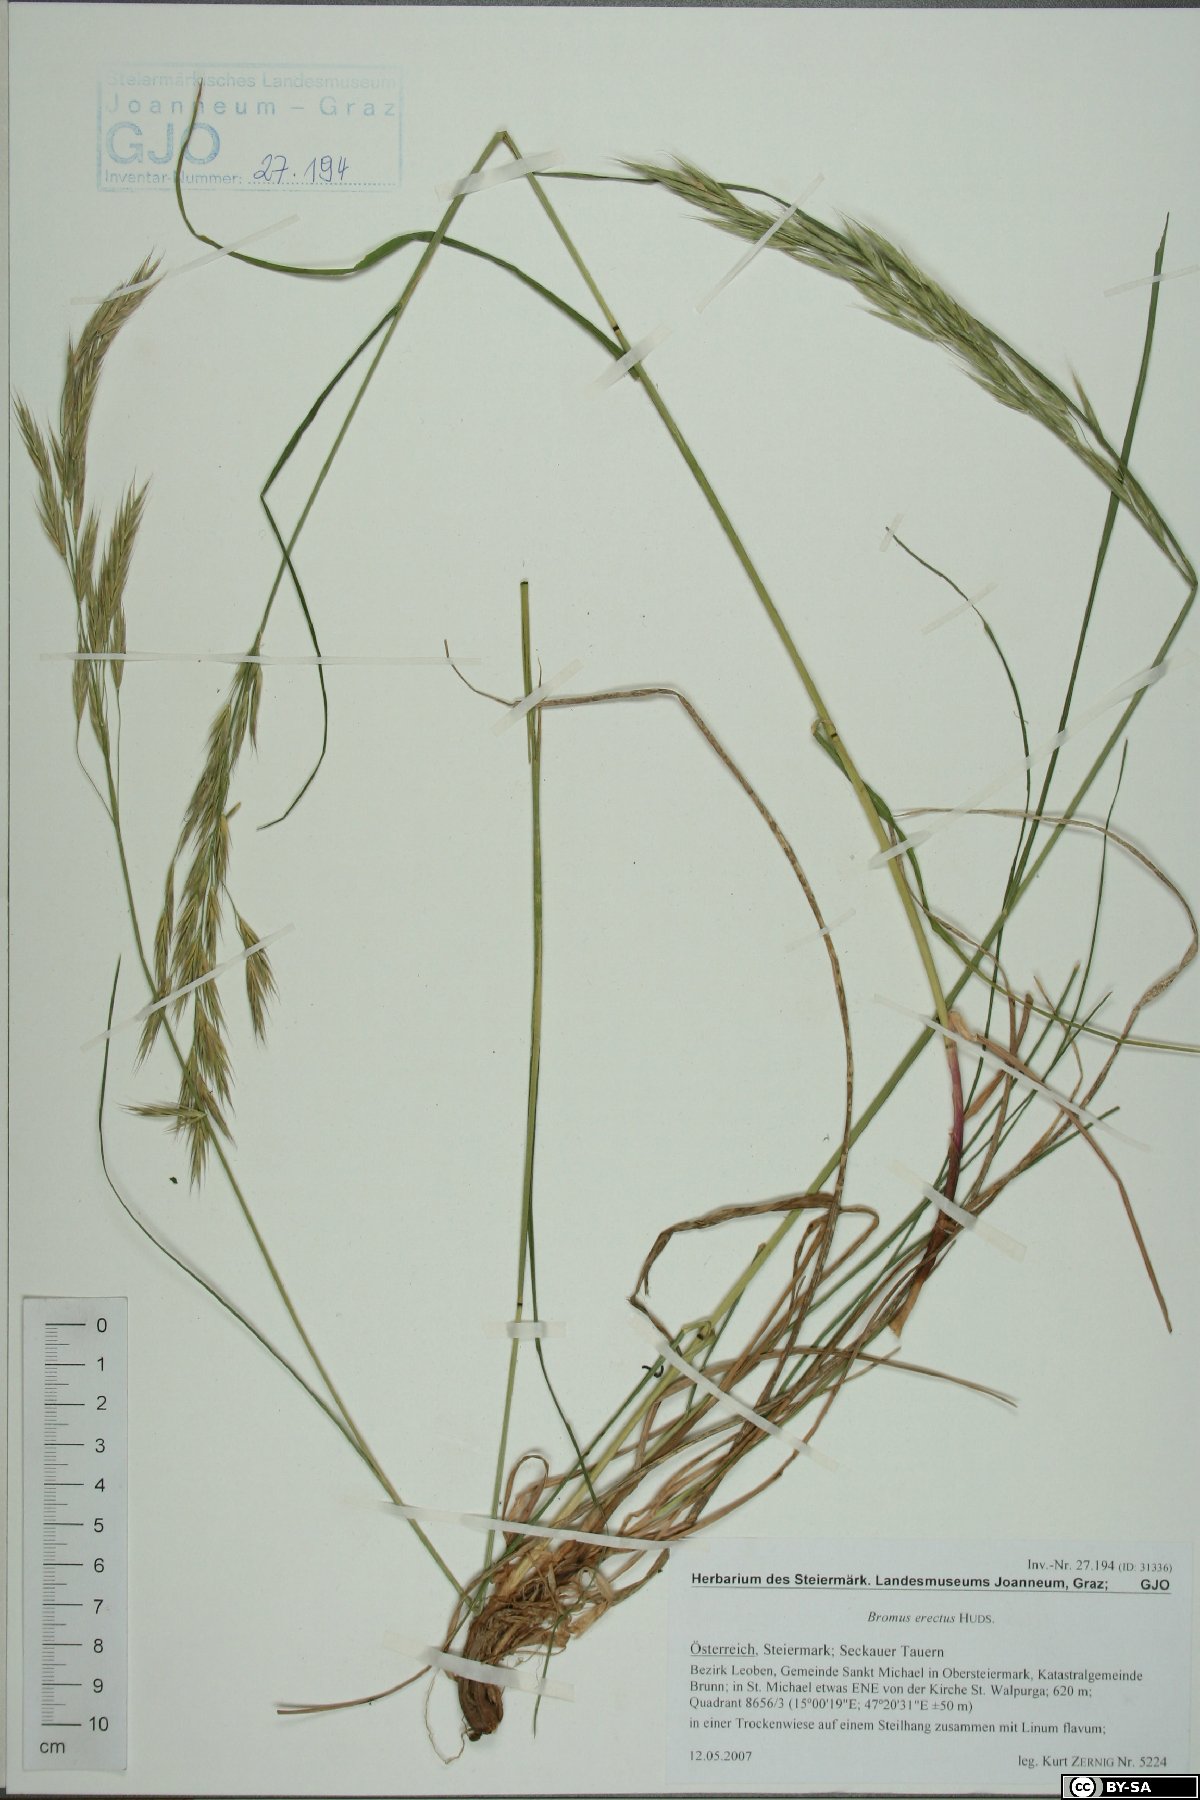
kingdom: Plantae
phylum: Tracheophyta
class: Liliopsida
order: Poales
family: Poaceae
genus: Bromus
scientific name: Bromus erectus
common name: Erect brome
